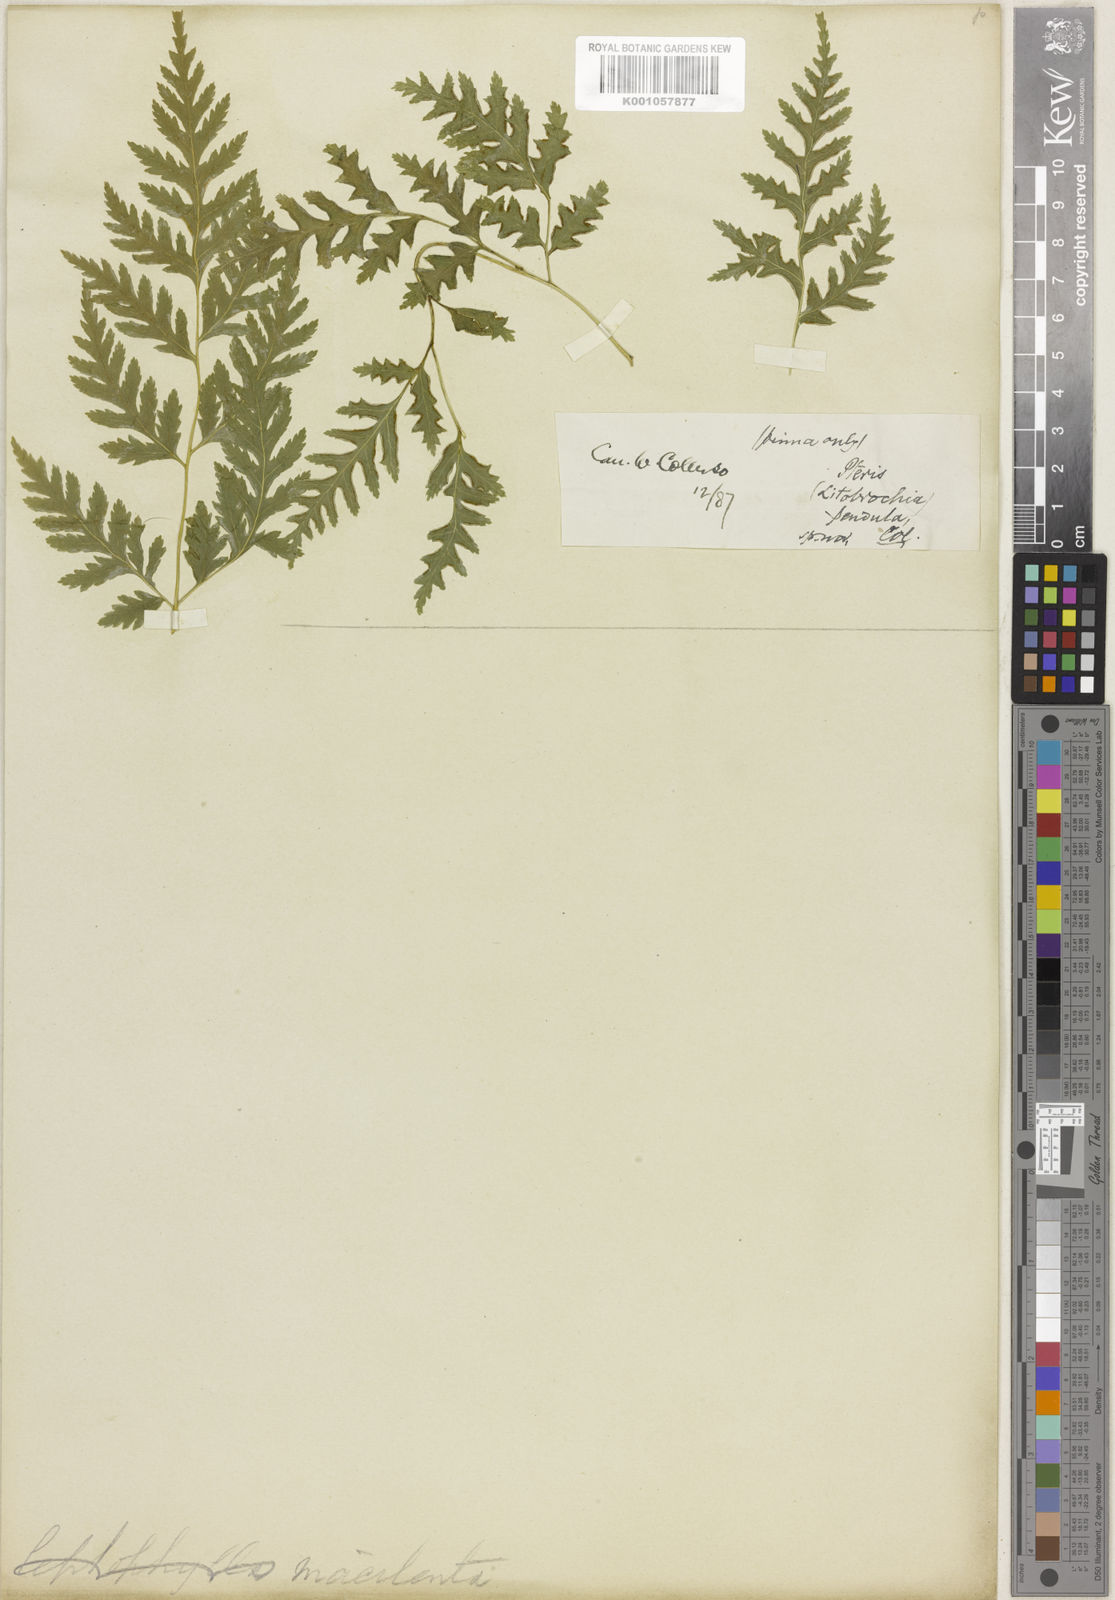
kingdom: Plantae
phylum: Tracheophyta
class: Polypodiopsida
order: Polypodiales
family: Pteridaceae
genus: Pteris
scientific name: Pteris macilenta
